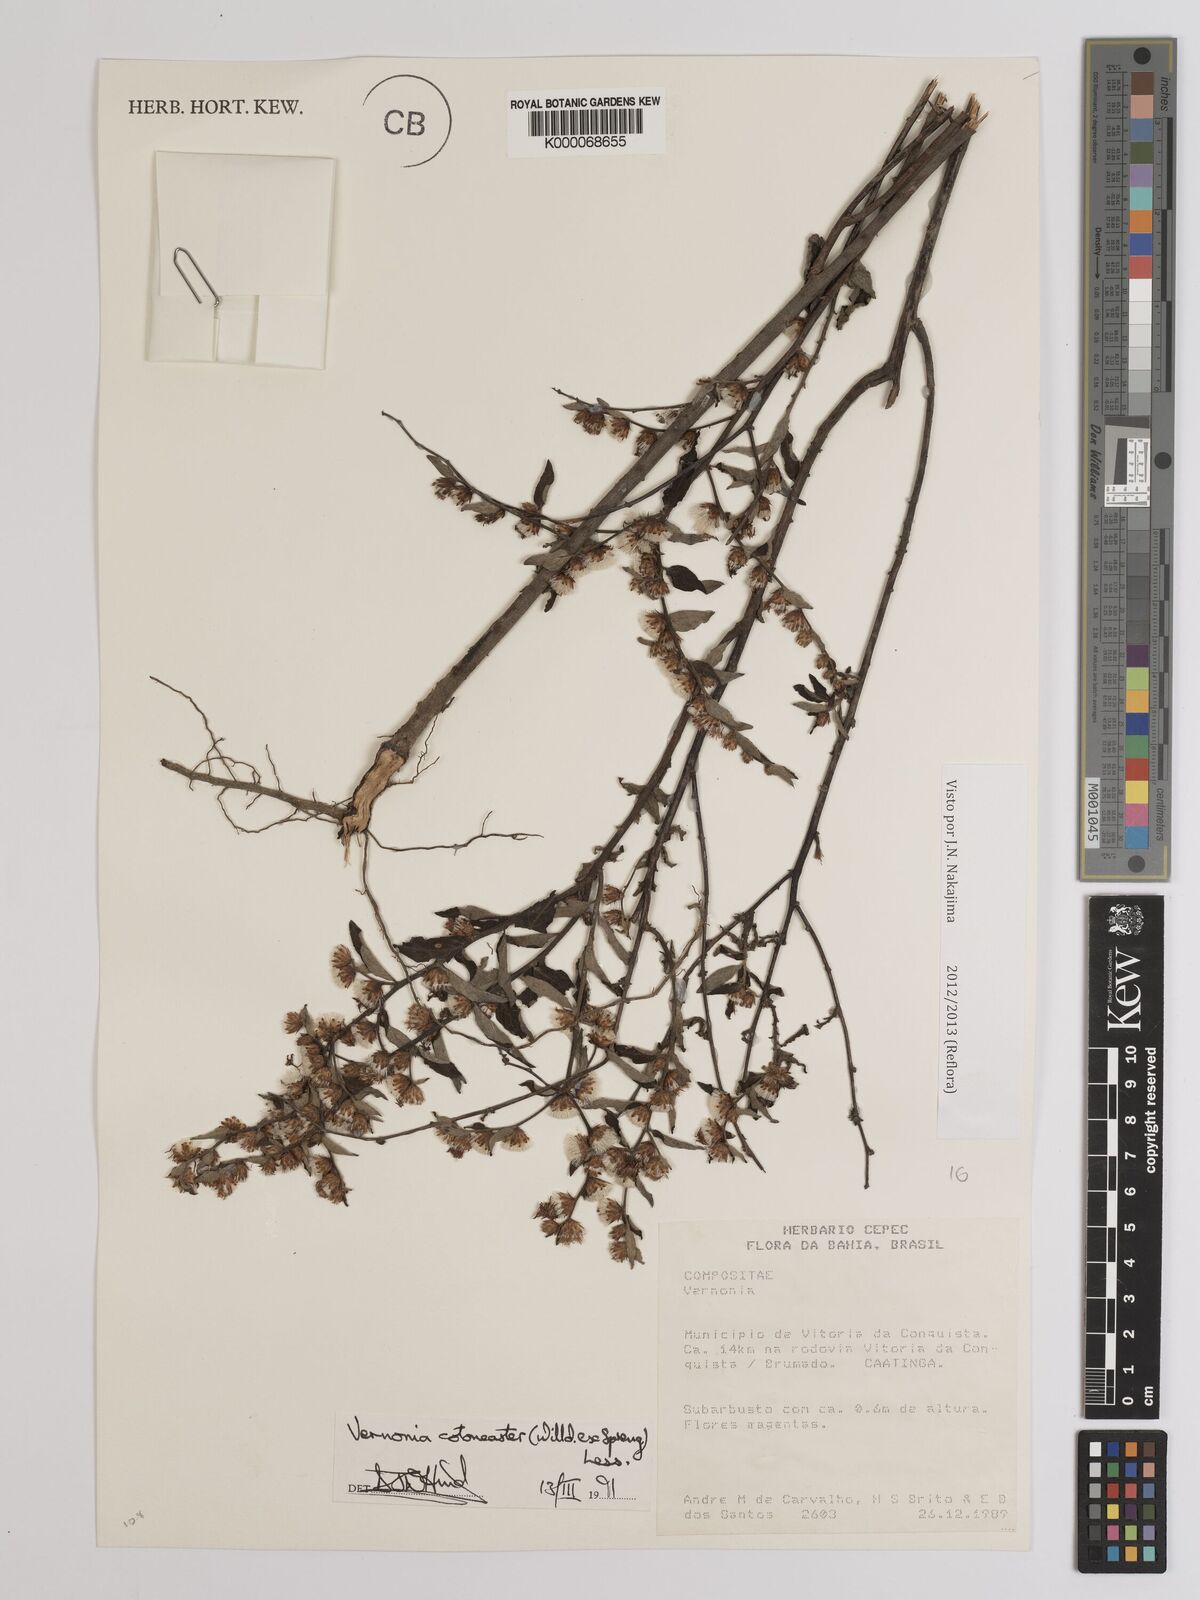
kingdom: Plantae
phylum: Tracheophyta
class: Magnoliopsida
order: Asterales
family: Asteraceae
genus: Lepidaploa
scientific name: Lepidaploa cotoneaster
